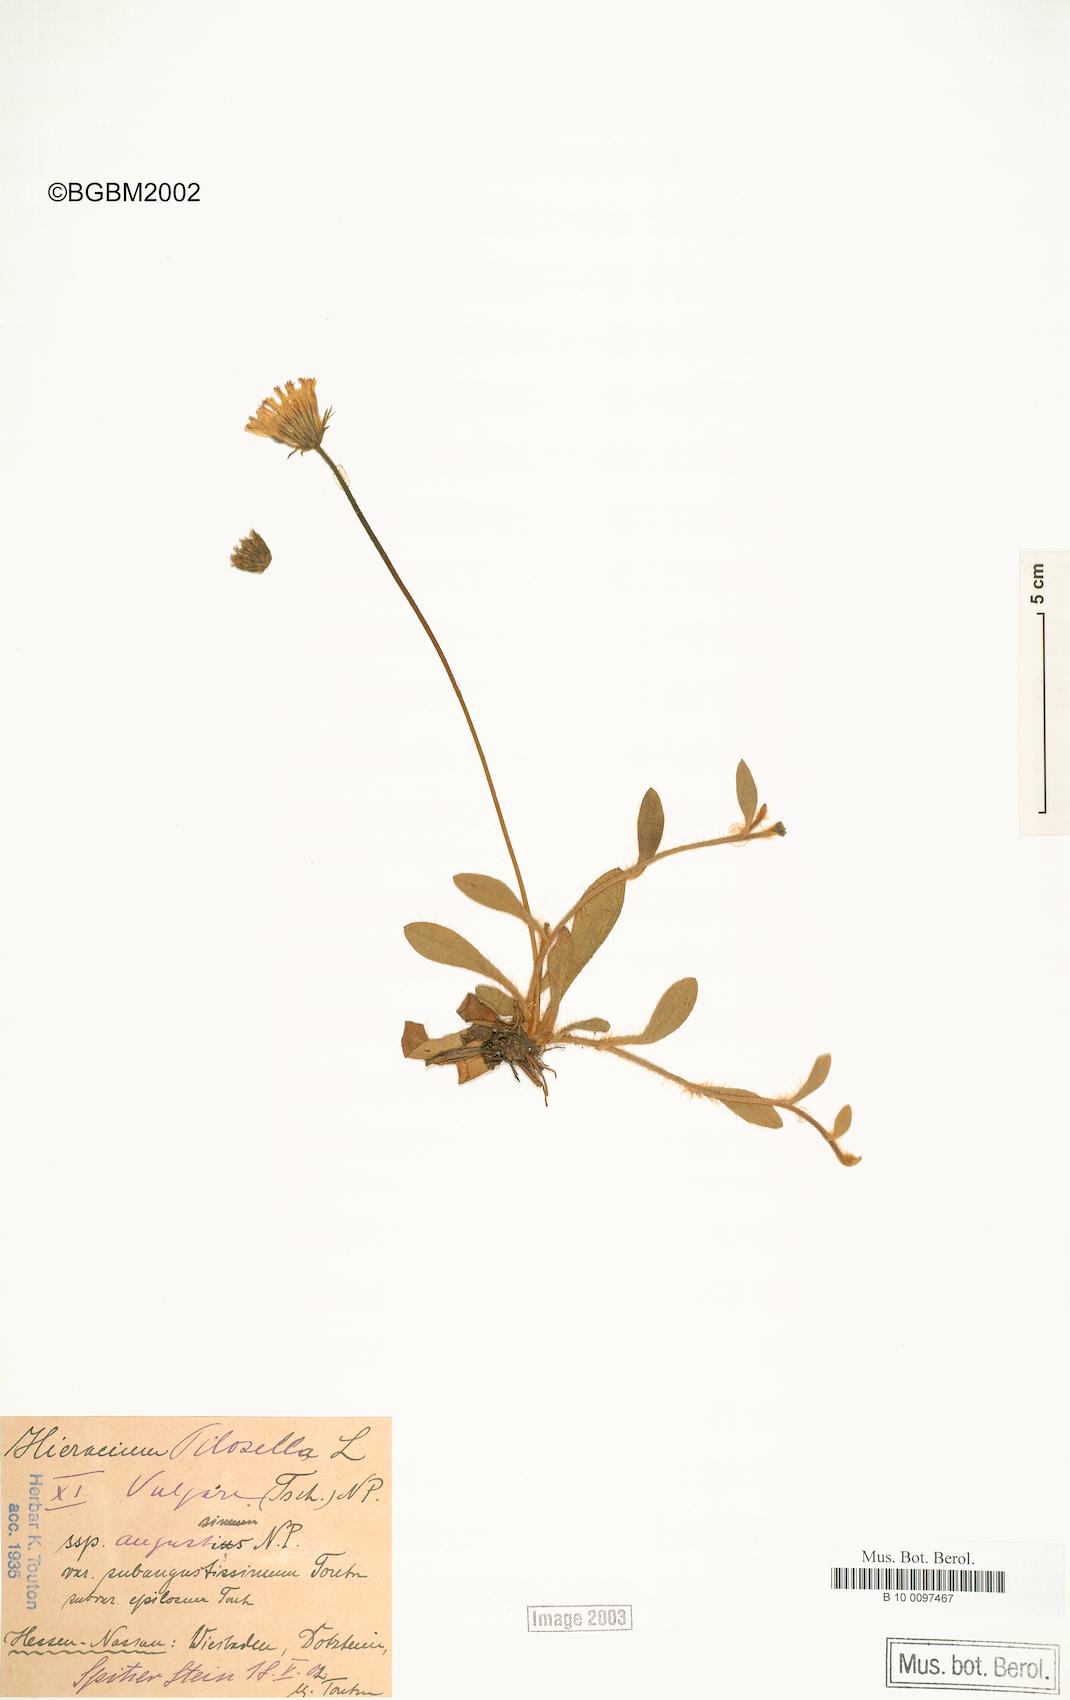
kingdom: Plantae
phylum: Tracheophyta
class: Magnoliopsida
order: Asterales
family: Asteraceae
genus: Pilosella
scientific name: Pilosella officinarum
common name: Mouse-ear hawkweed
